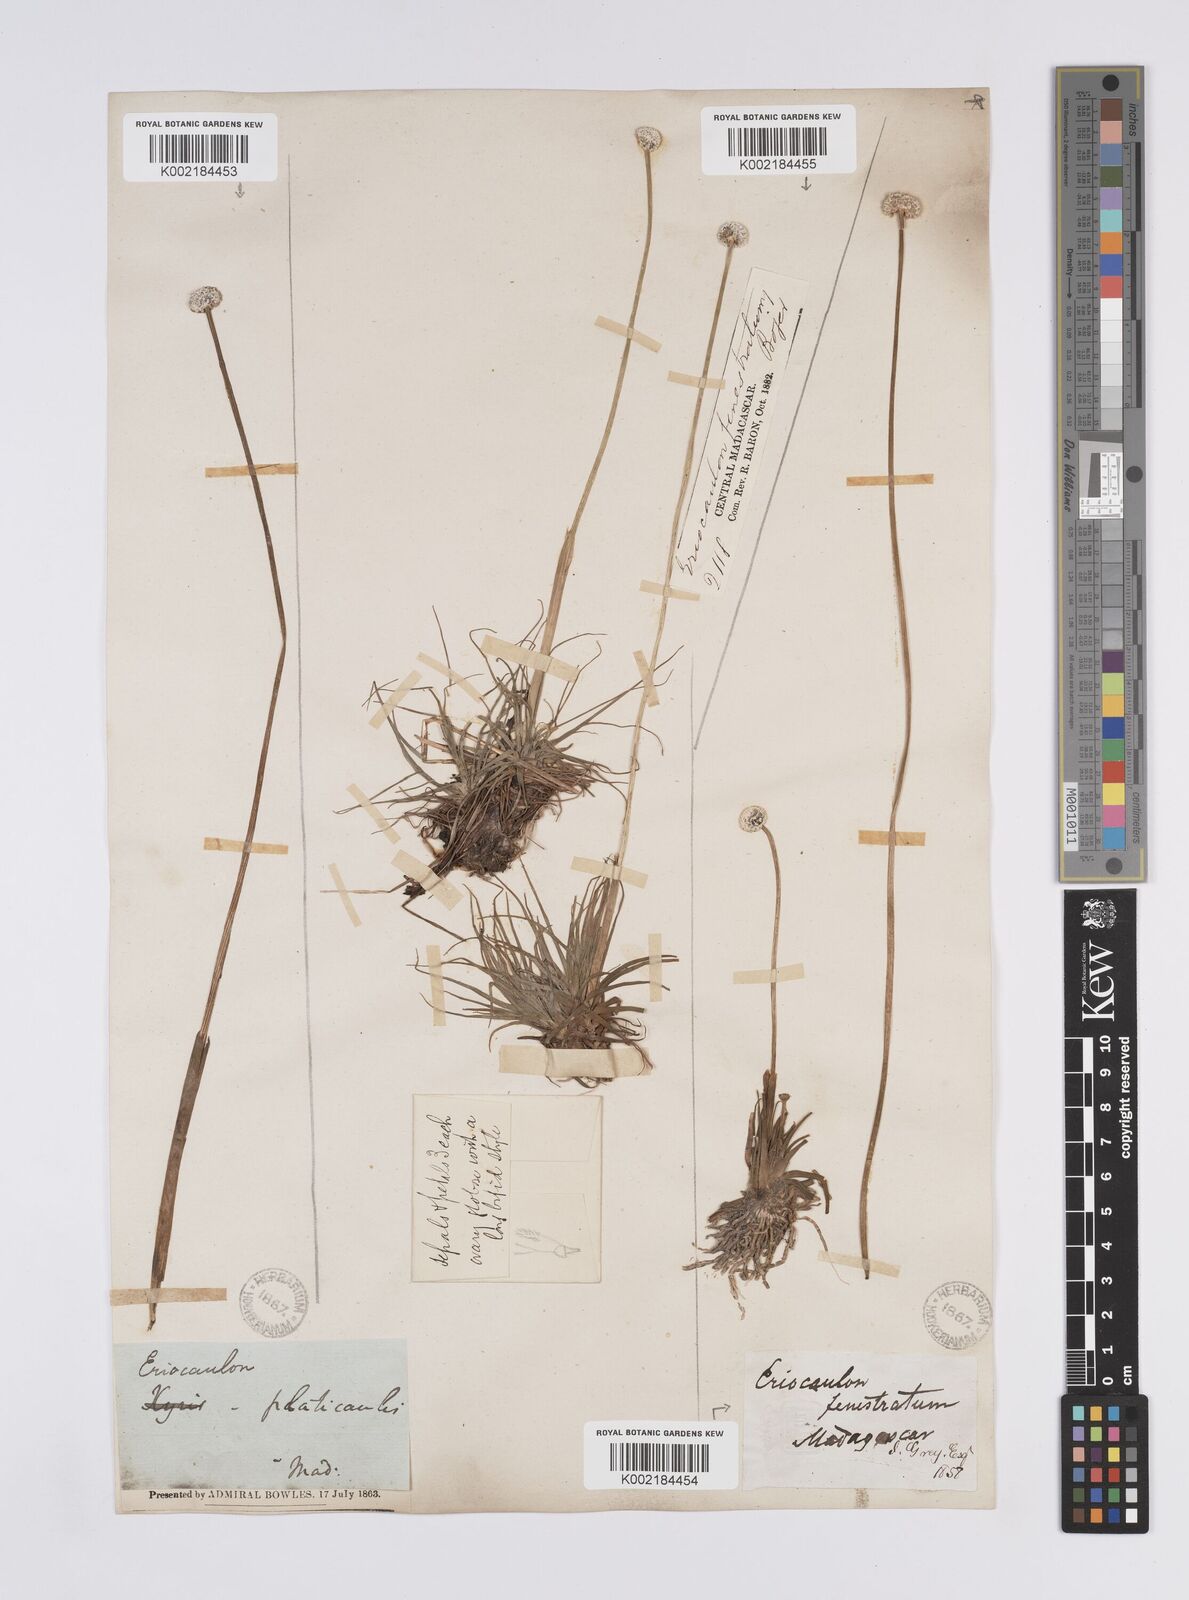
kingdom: Plantae
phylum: Tracheophyta
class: Liliopsida
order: Poales
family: Eriocaulaceae
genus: Eriocaulon
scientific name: Eriocaulon fenestratum
